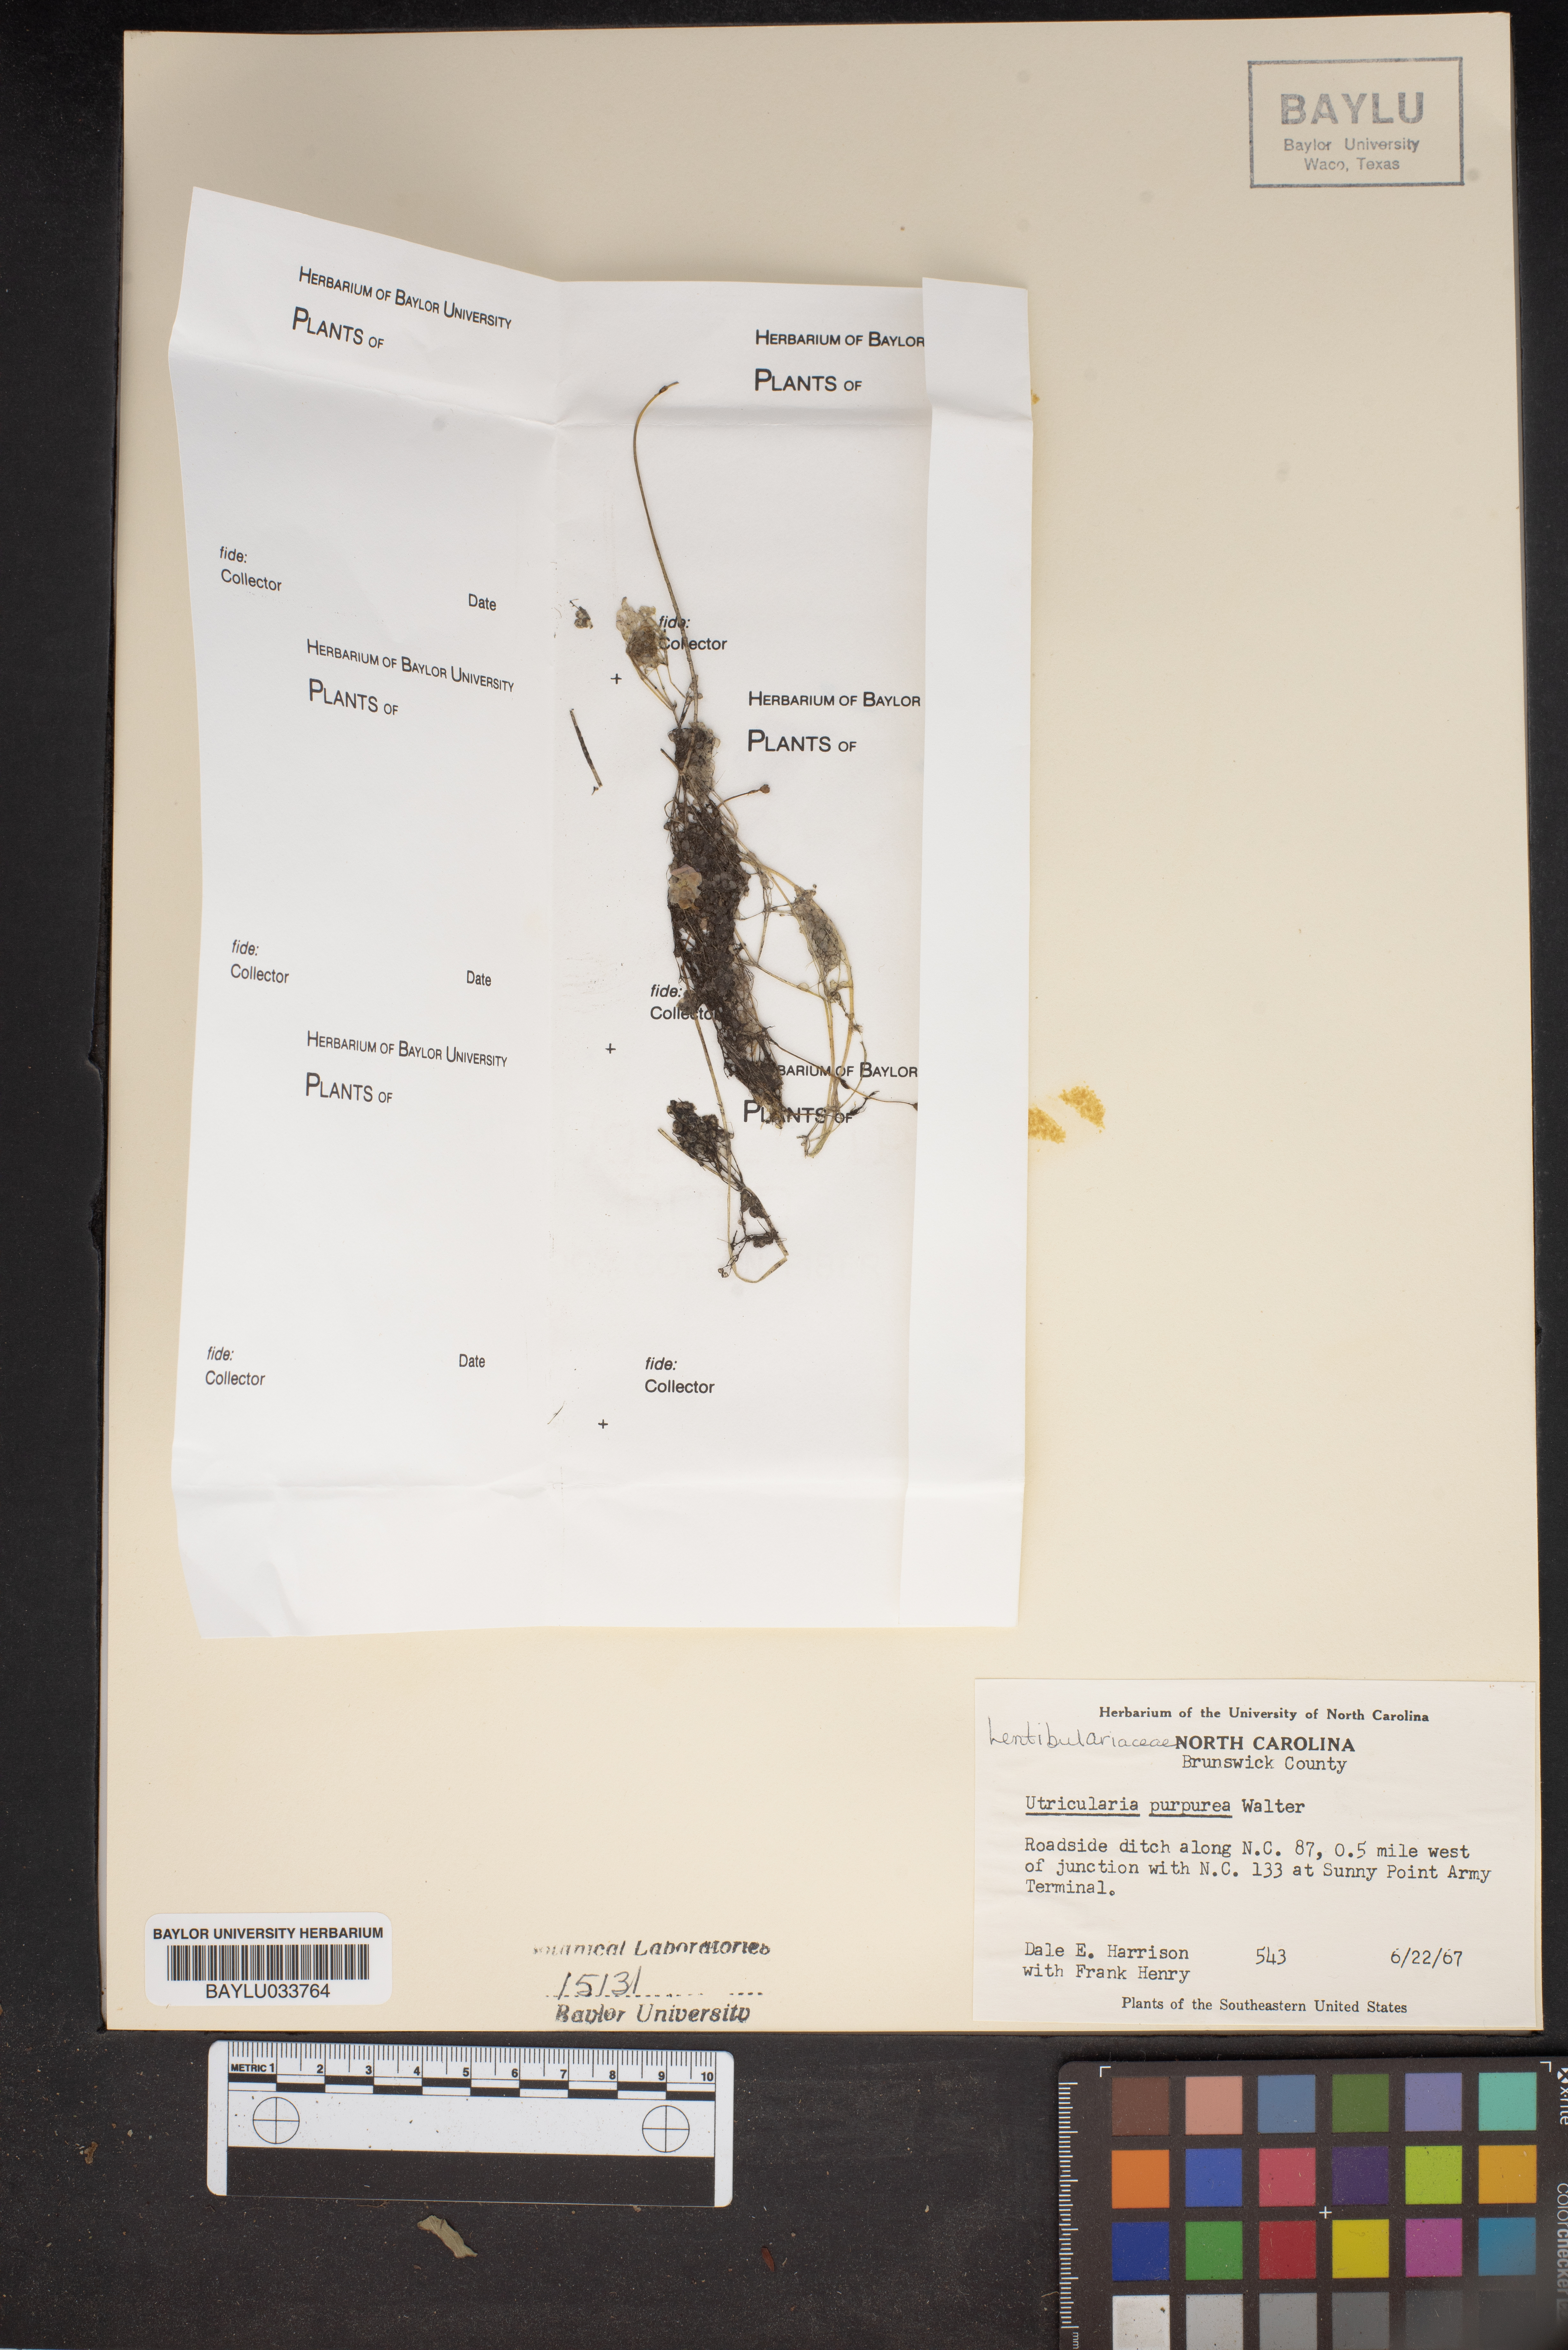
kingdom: Plantae
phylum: Tracheophyta
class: Magnoliopsida
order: Lamiales
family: Lentibulariaceae
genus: Utricularia
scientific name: Utricularia purpurea
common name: Eastern purple bladderwort
